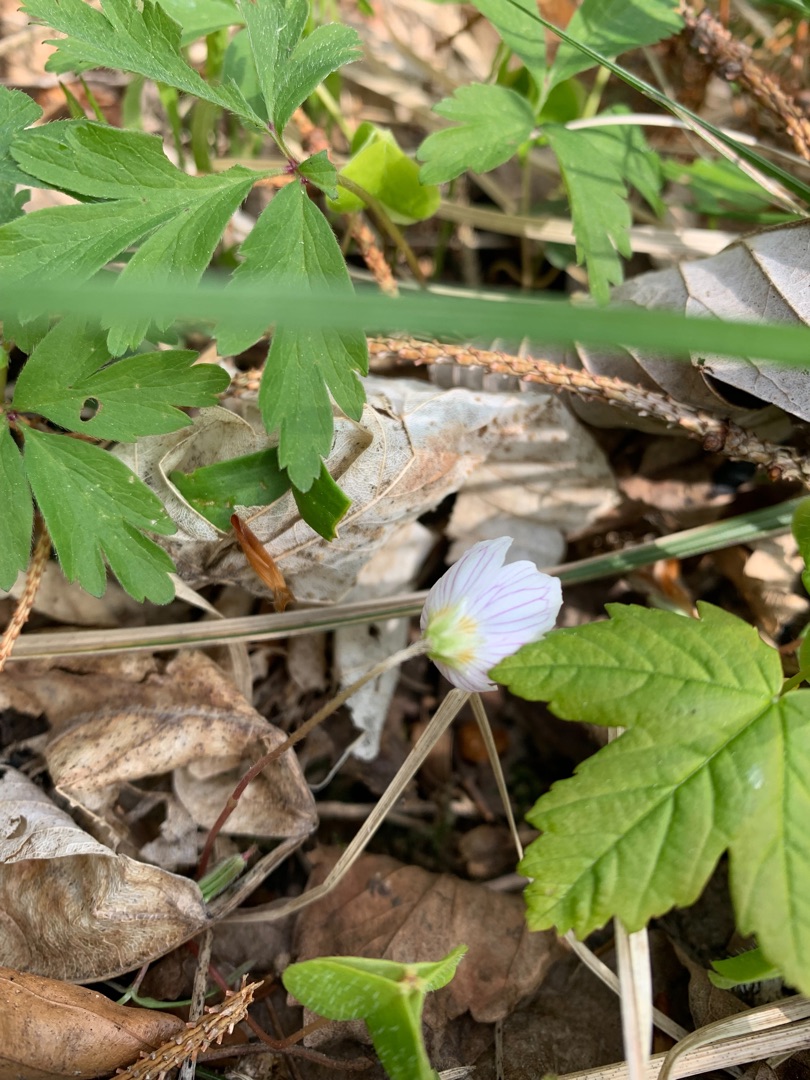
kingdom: Plantae
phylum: Tracheophyta
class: Magnoliopsida
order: Oxalidales
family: Oxalidaceae
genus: Oxalis
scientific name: Oxalis acetosella
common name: Skovsyre
